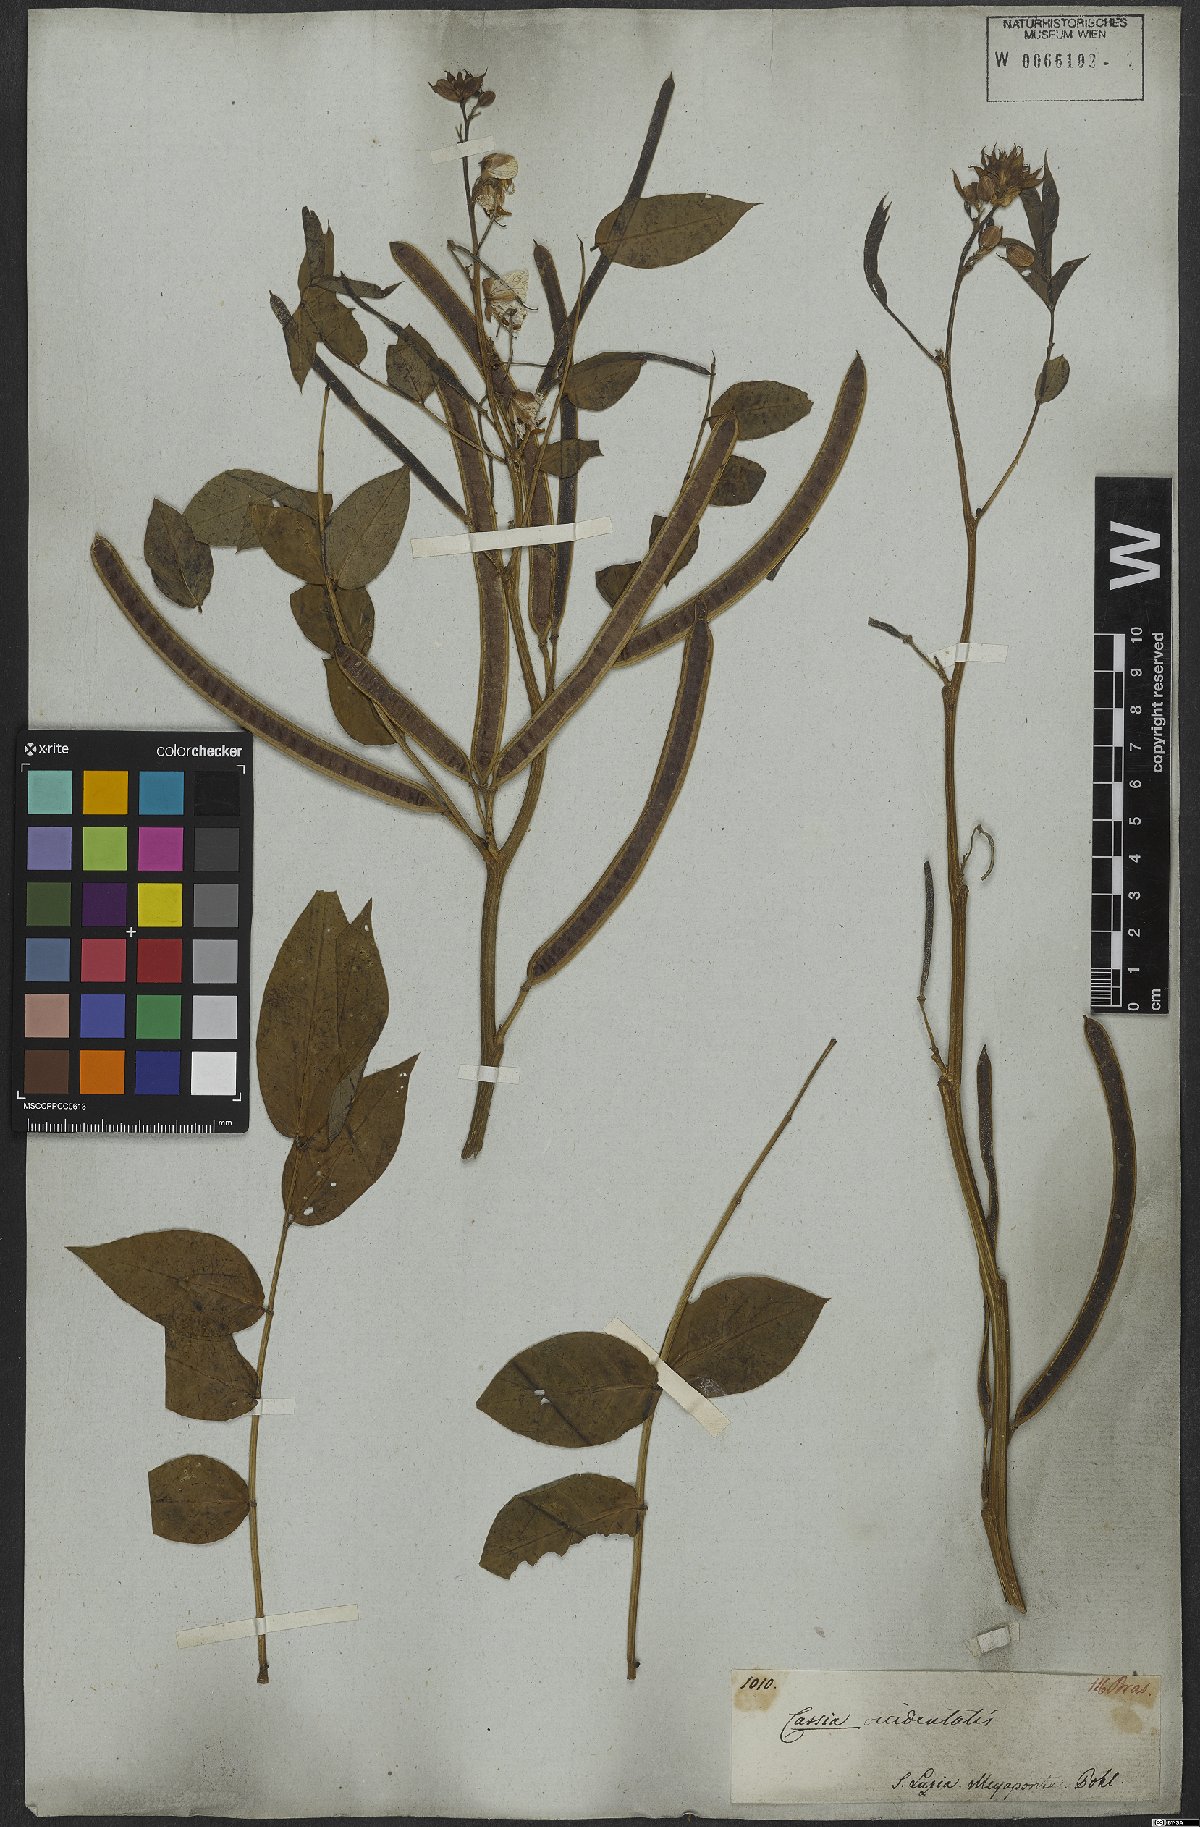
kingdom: Plantae
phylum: Tracheophyta
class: Magnoliopsida
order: Fabales
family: Fabaceae
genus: Senna
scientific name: Senna occidentalis
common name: Septicweed
